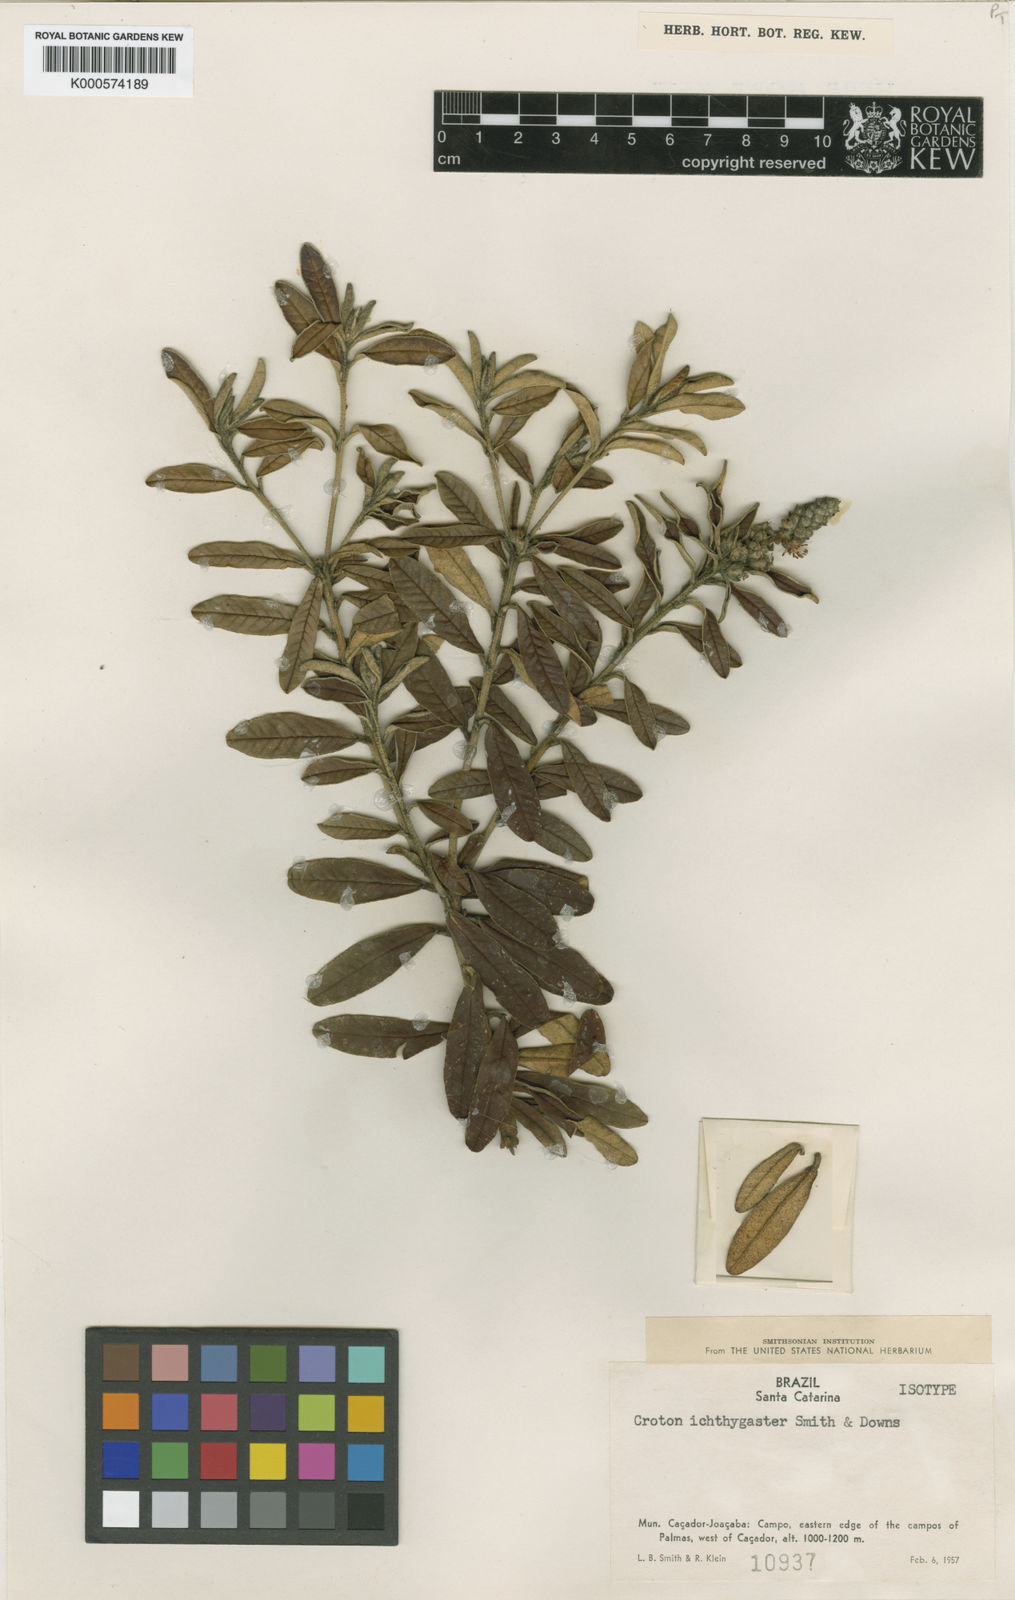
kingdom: Plantae
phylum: Tracheophyta
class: Magnoliopsida
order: Malpighiales
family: Euphorbiaceae
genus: Croton
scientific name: Croton ichthygaster
